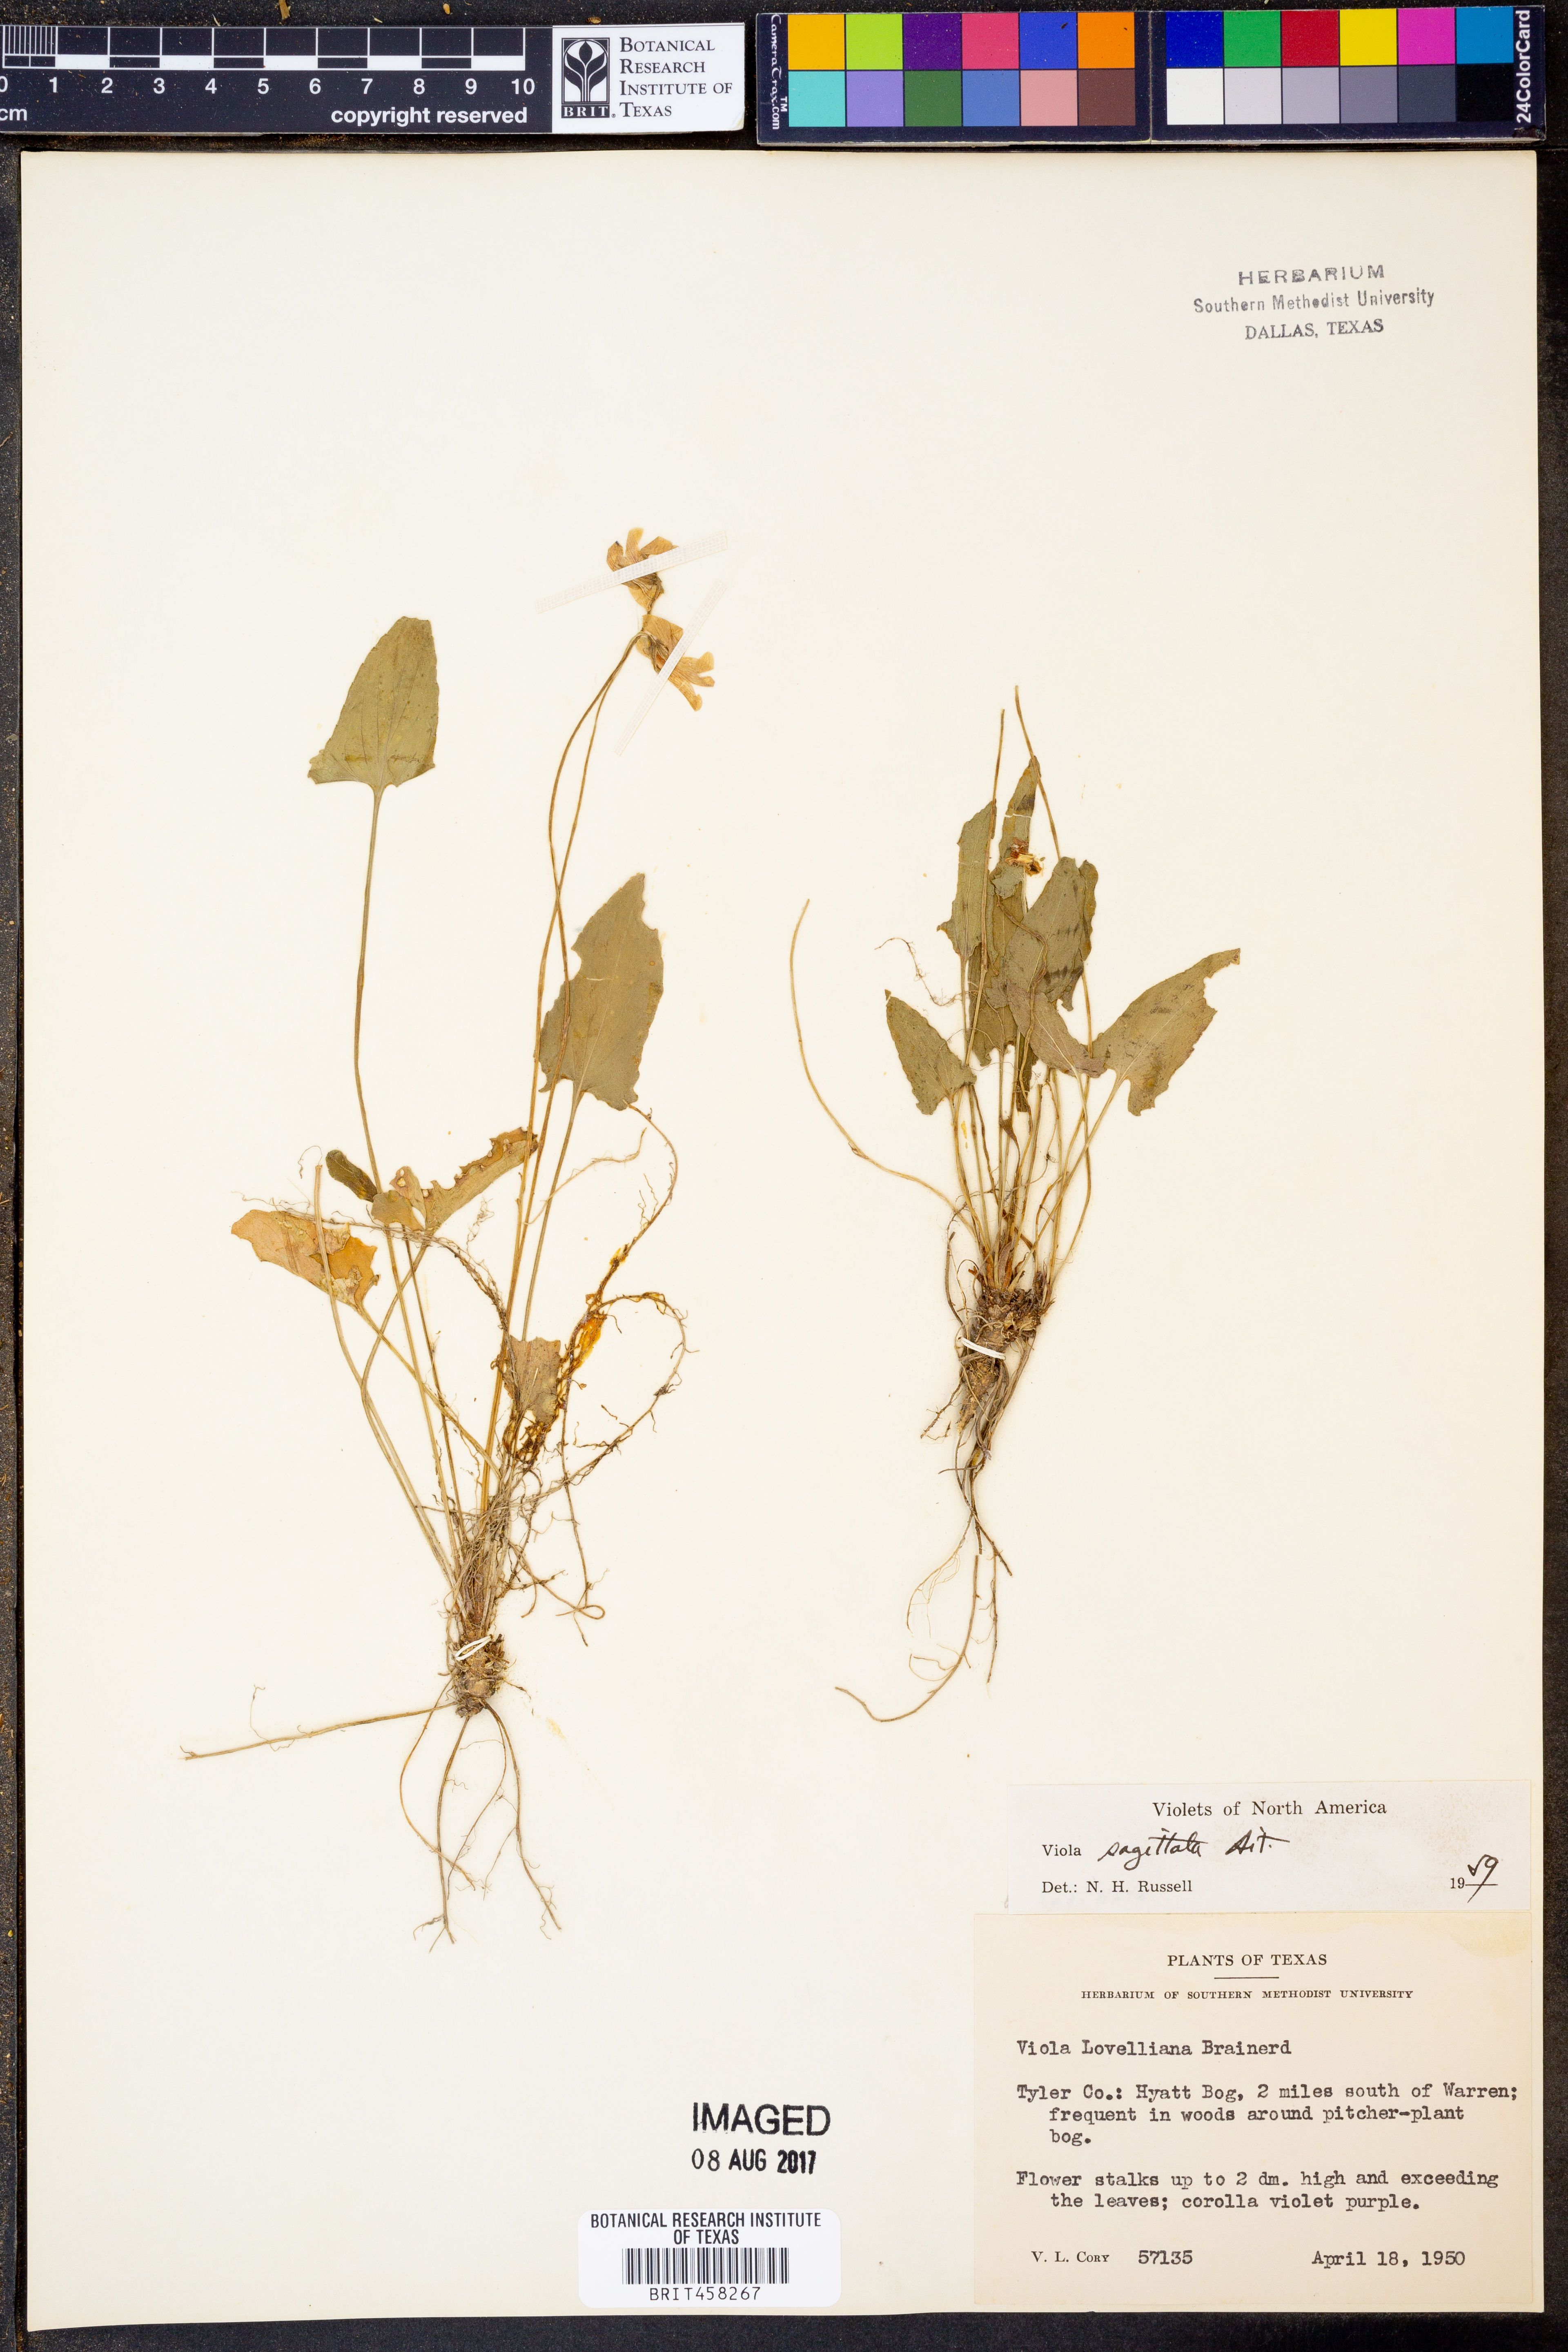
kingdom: Plantae
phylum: Tracheophyta
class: Magnoliopsida
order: Malpighiales
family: Violaceae
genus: Viola
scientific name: Viola sagittata
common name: Arrowhead violet
